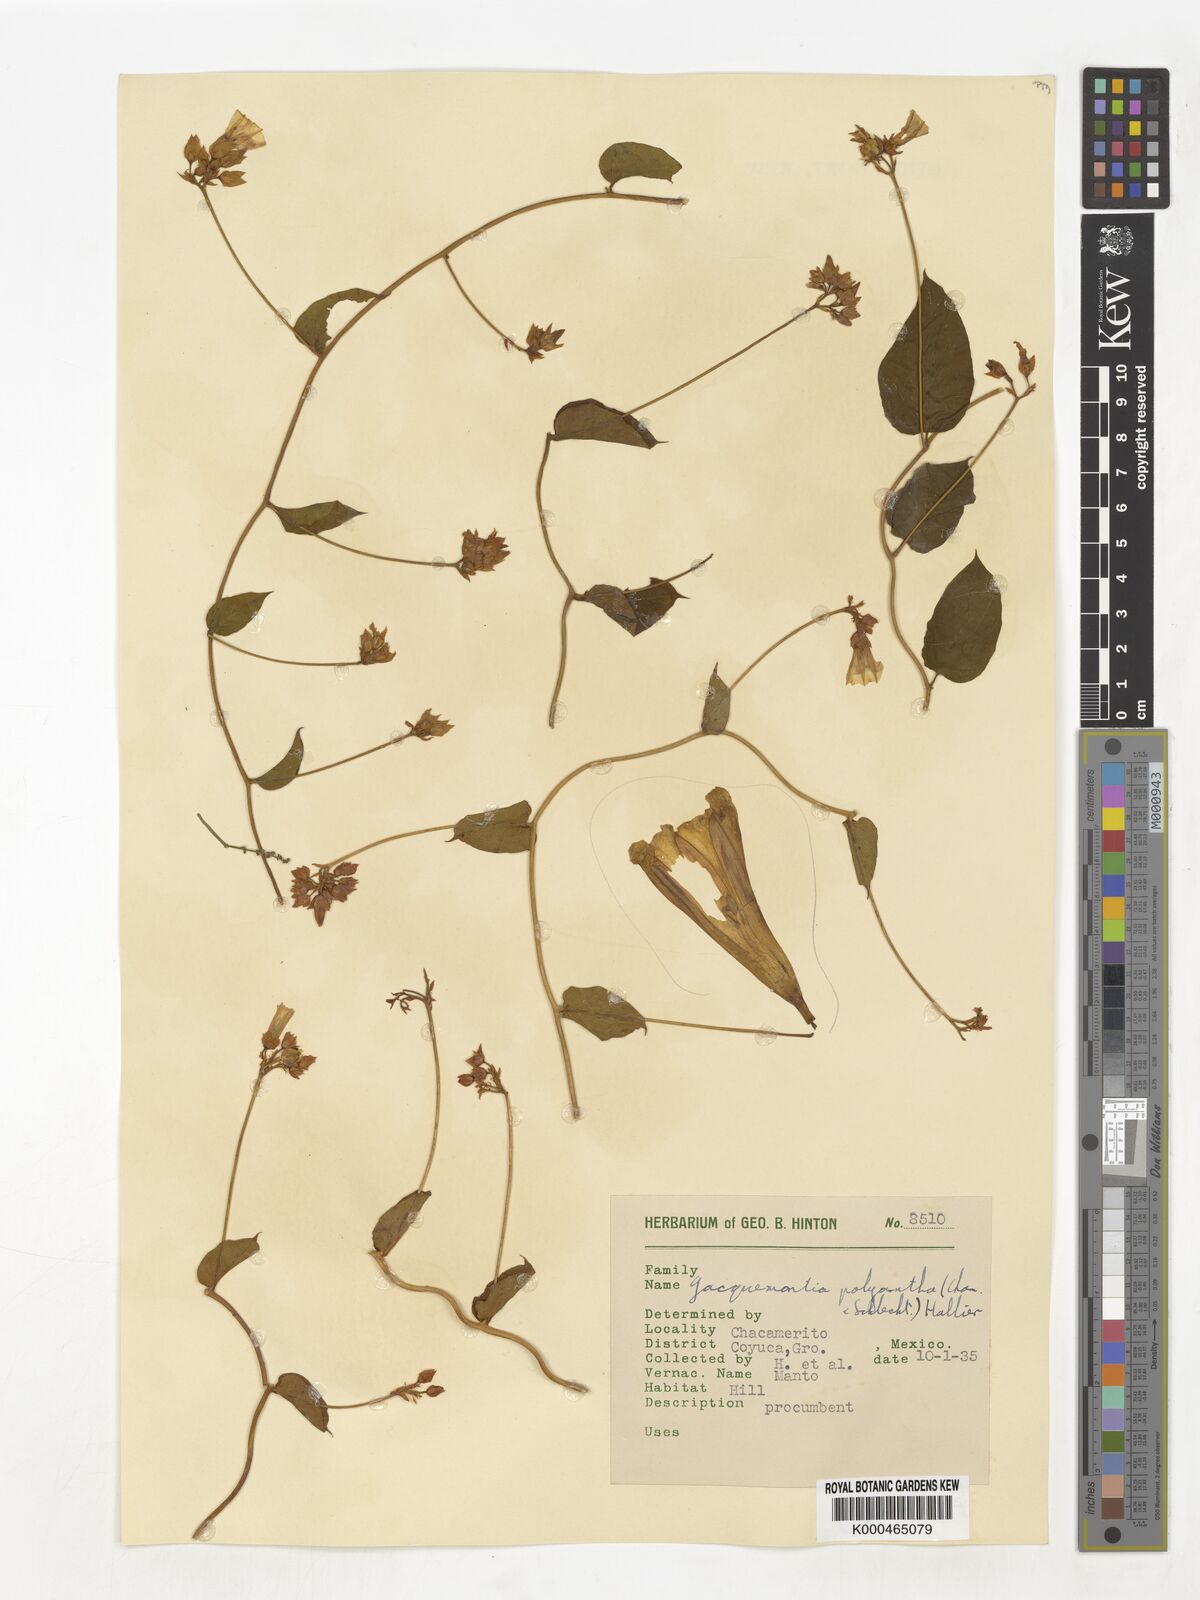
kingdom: Plantae
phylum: Tracheophyta
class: Magnoliopsida
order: Solanales
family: Convolvulaceae
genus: Jacquemontia
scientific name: Jacquemontia polyantha
